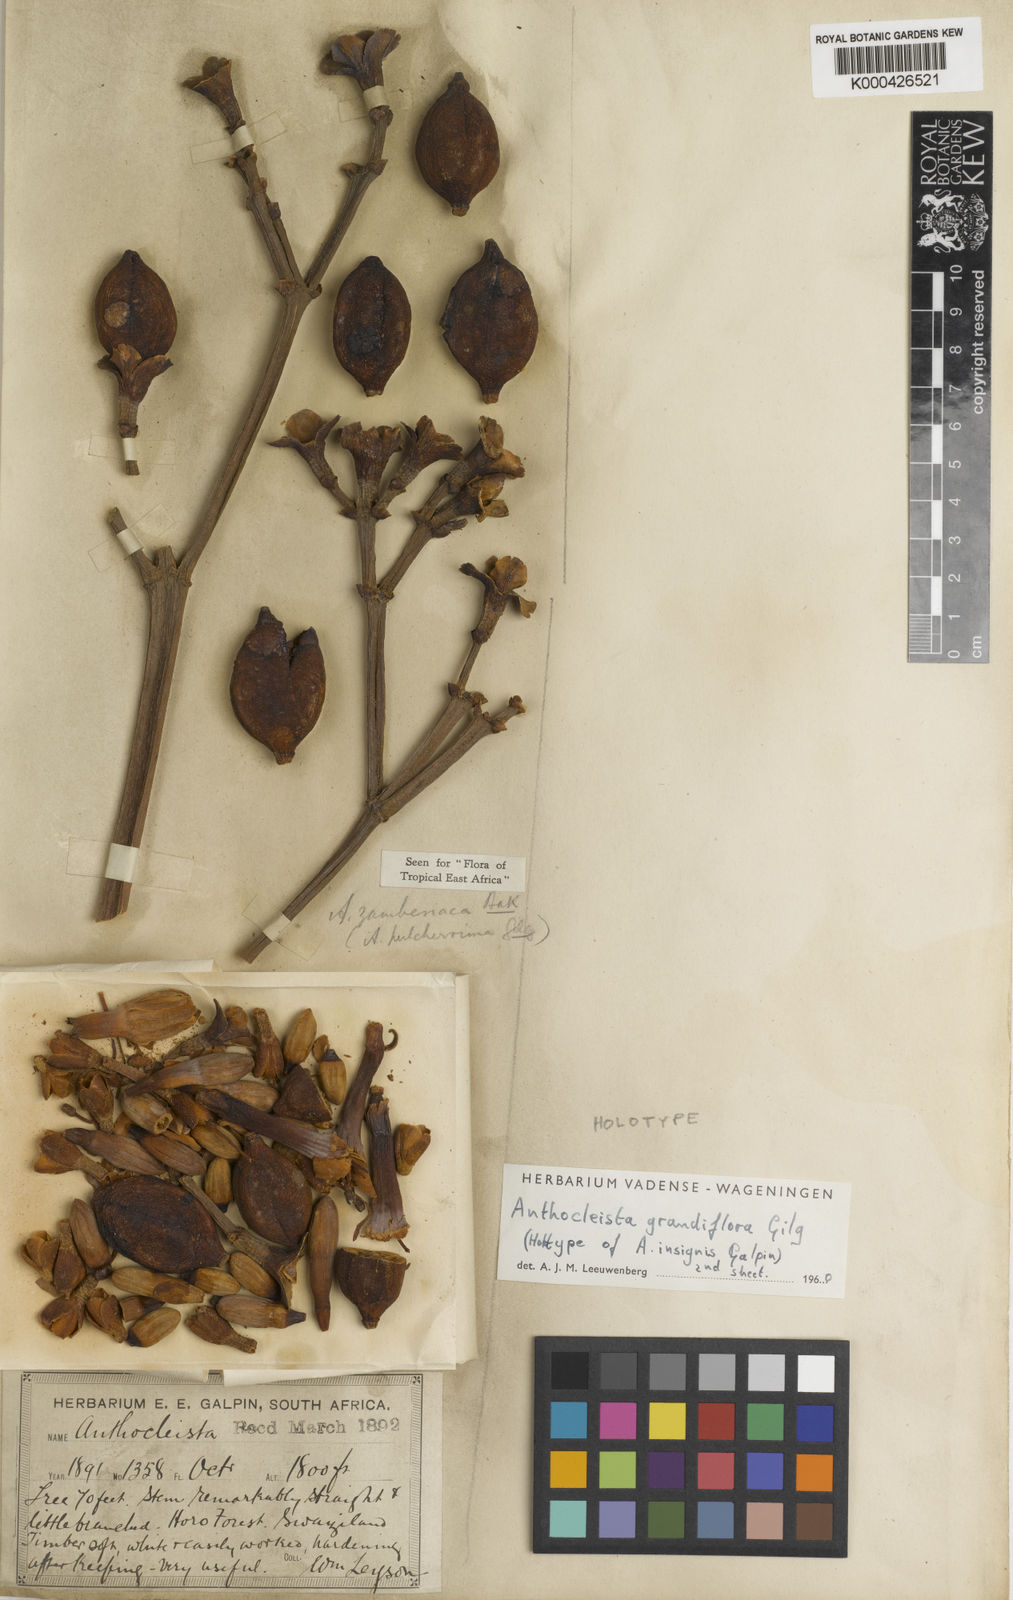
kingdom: Plantae
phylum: Tracheophyta
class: Magnoliopsida
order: Gentianales
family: Gentianaceae
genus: Anthocleista
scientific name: Anthocleista grandiflora
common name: Forest big-leaf
